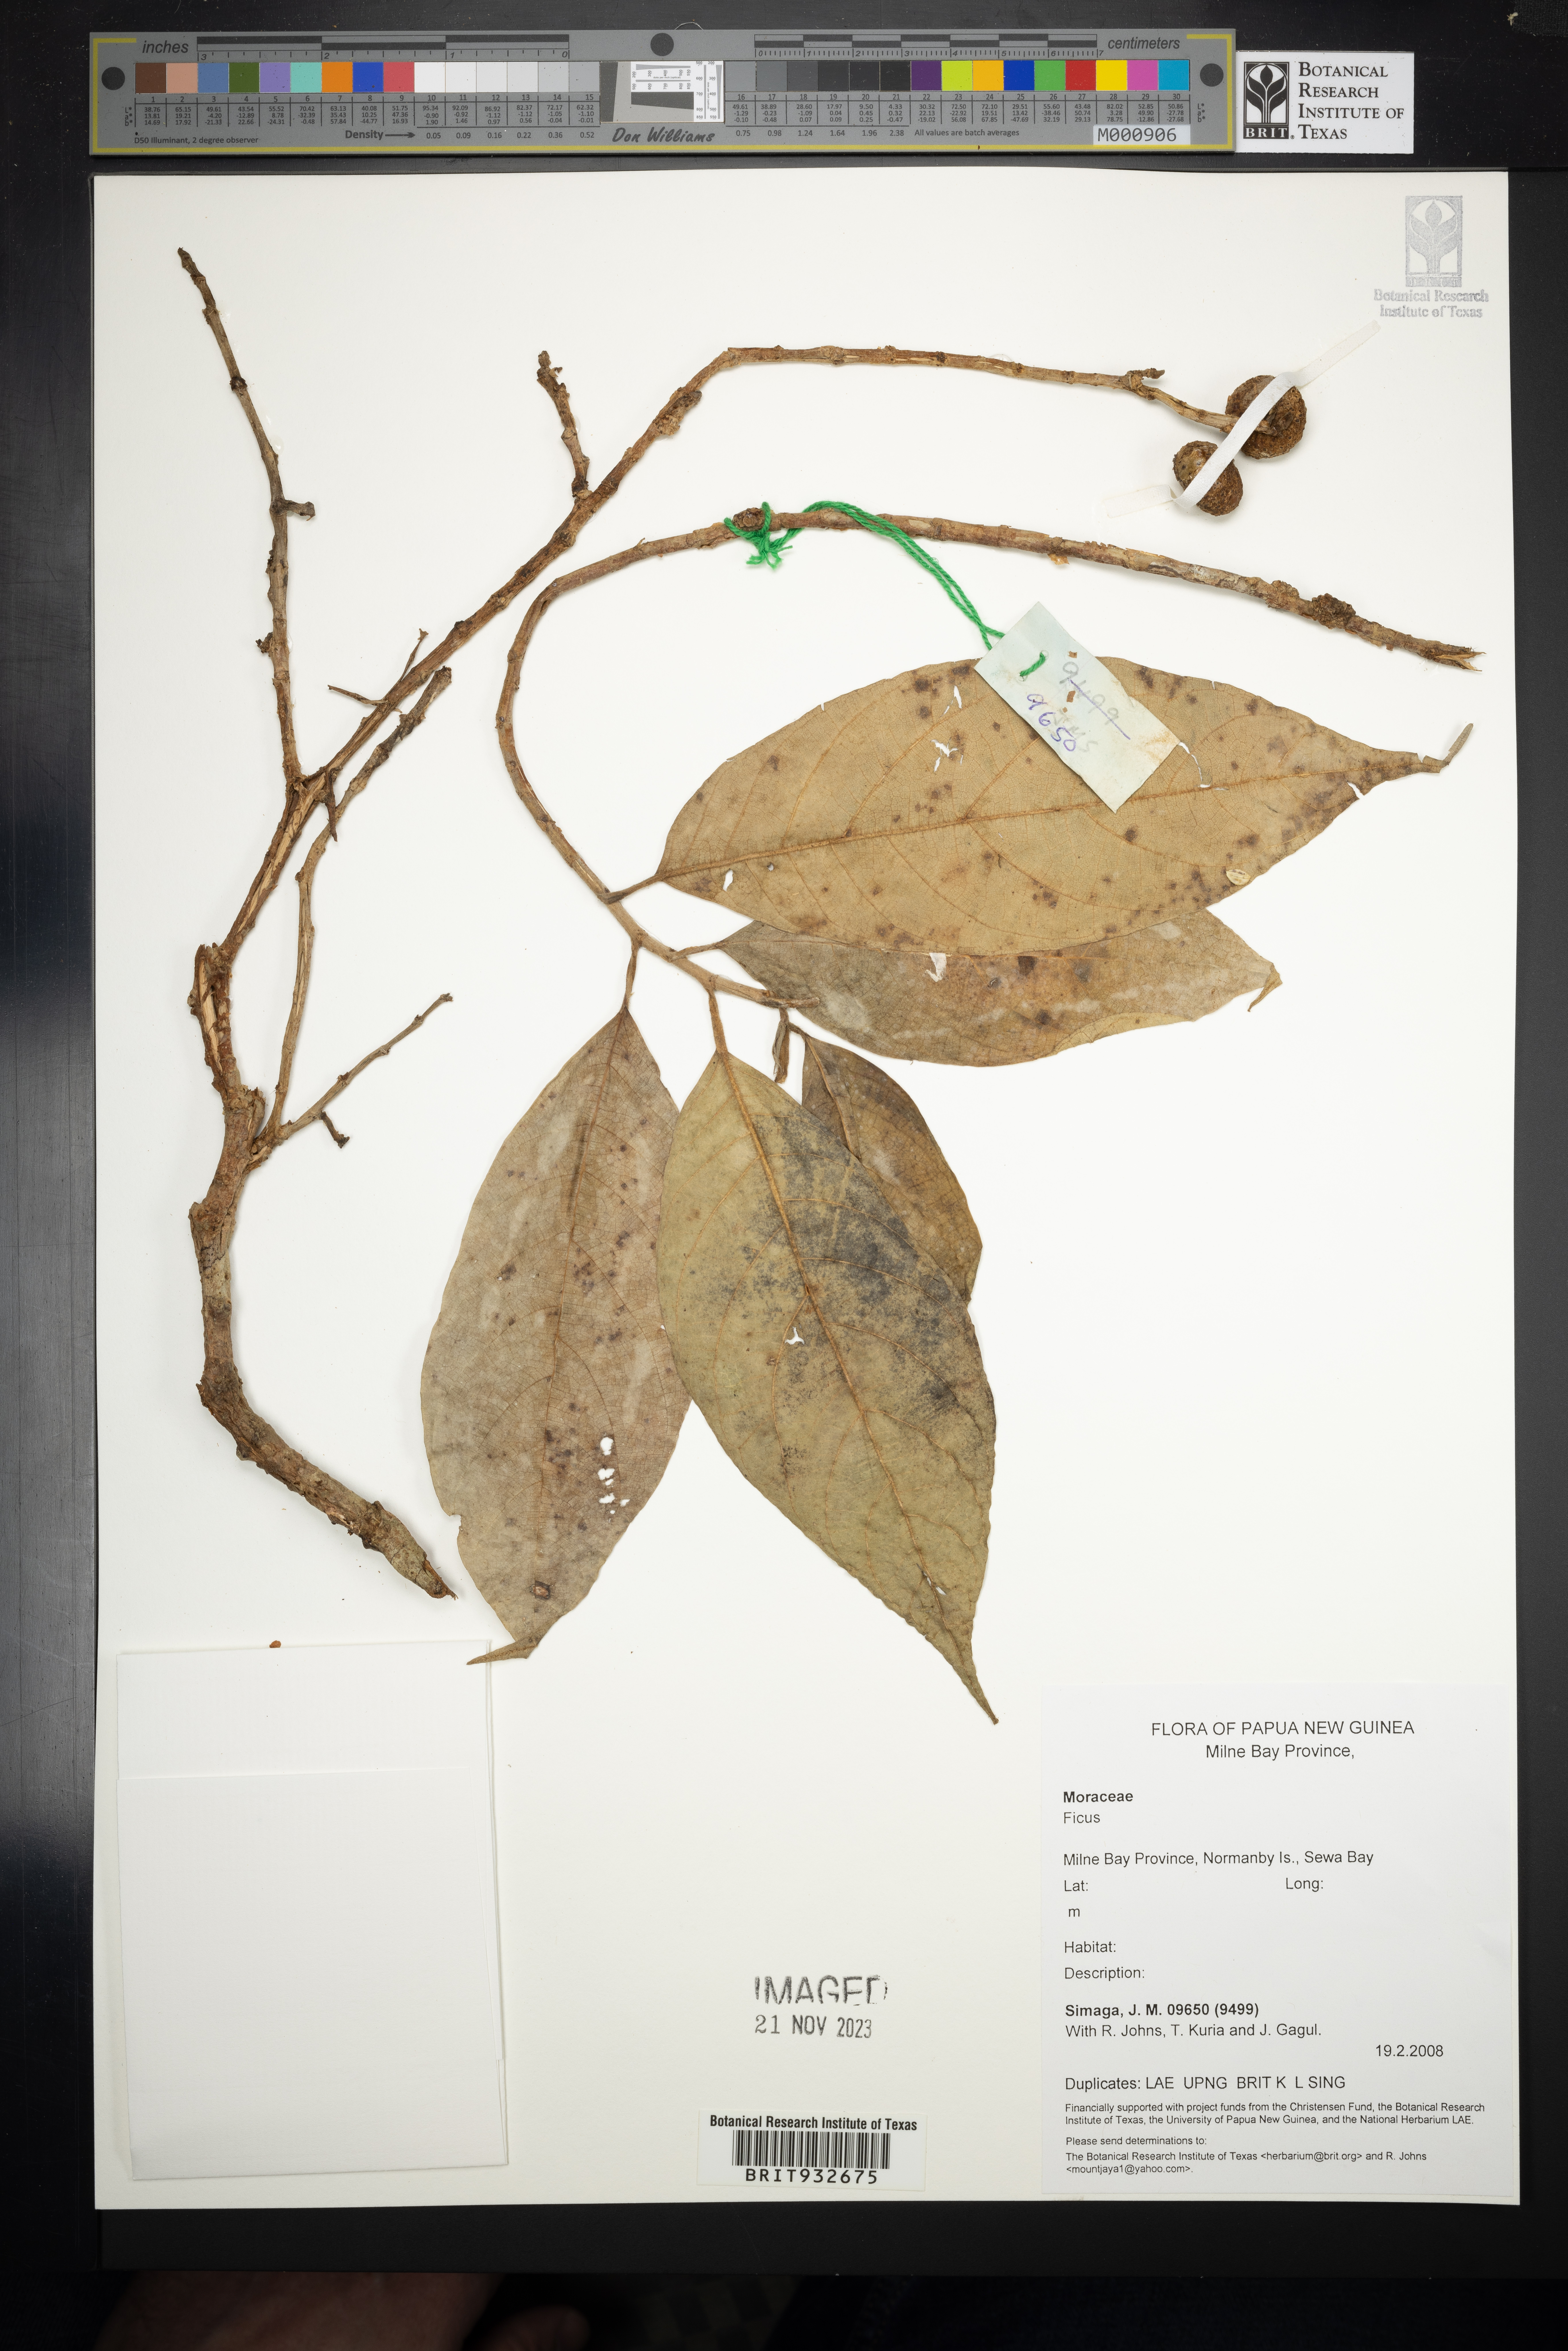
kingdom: Plantae
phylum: Tracheophyta
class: Magnoliopsida
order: Rosales
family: Moraceae
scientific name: Moraceae
